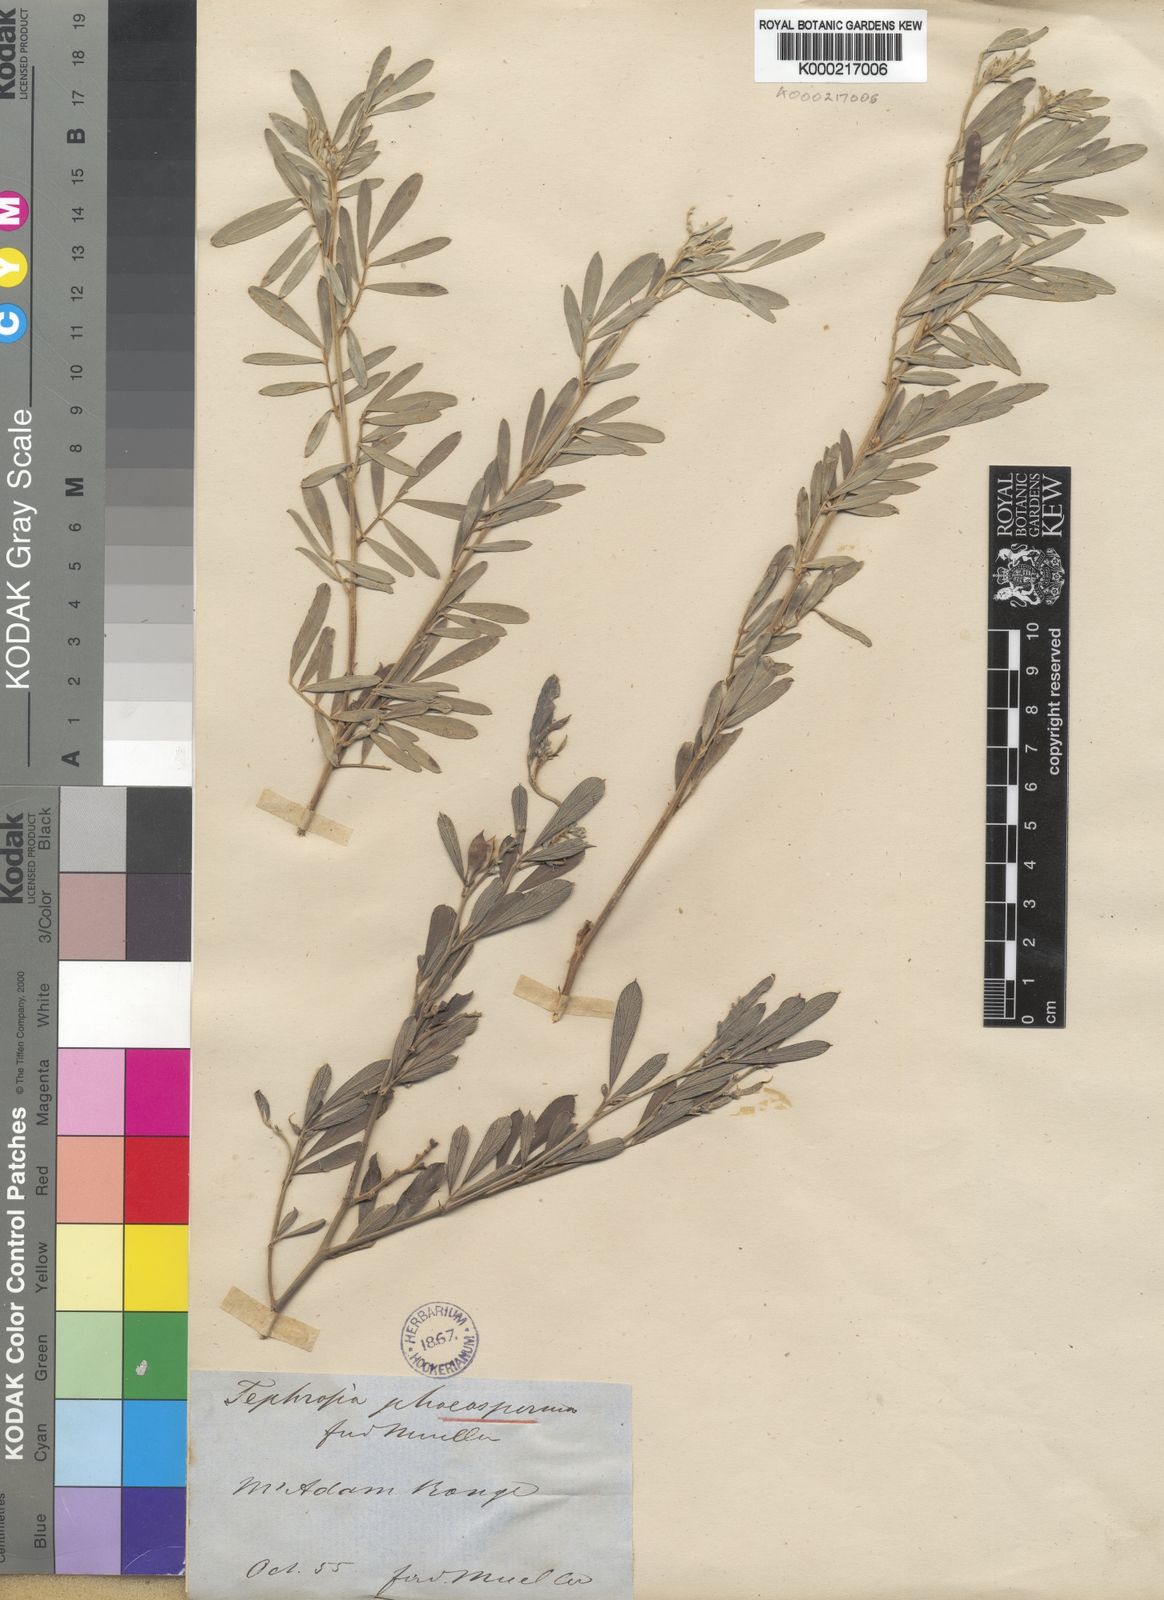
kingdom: Plantae
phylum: Tracheophyta
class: Magnoliopsida
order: Fabales
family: Fabaceae
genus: Tephrosia
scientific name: Tephrosia phaeosperma
